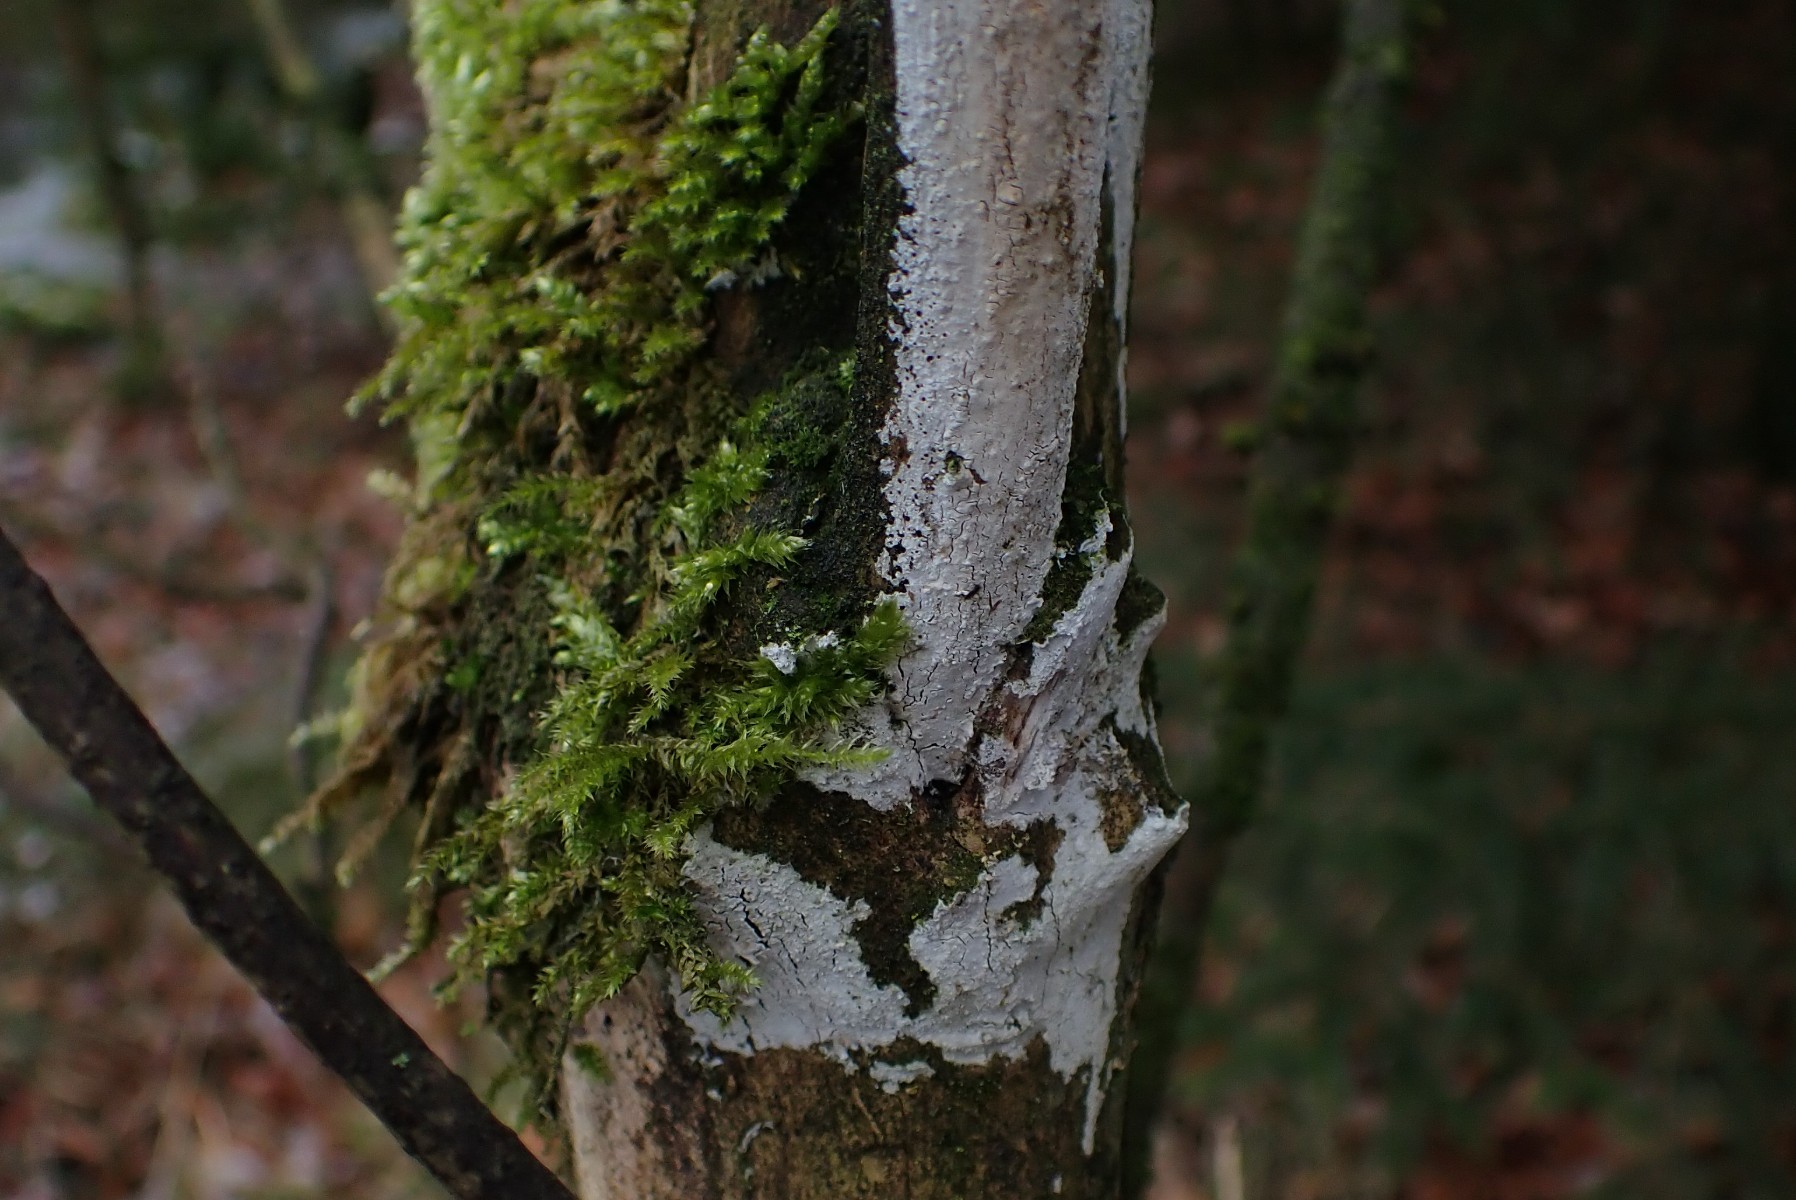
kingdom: Fungi
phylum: Basidiomycota
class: Agaricomycetes
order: Corticiales
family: Corticiaceae
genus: Lyomyces
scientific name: Lyomyces sambuci
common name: almindelig hyldehinde
